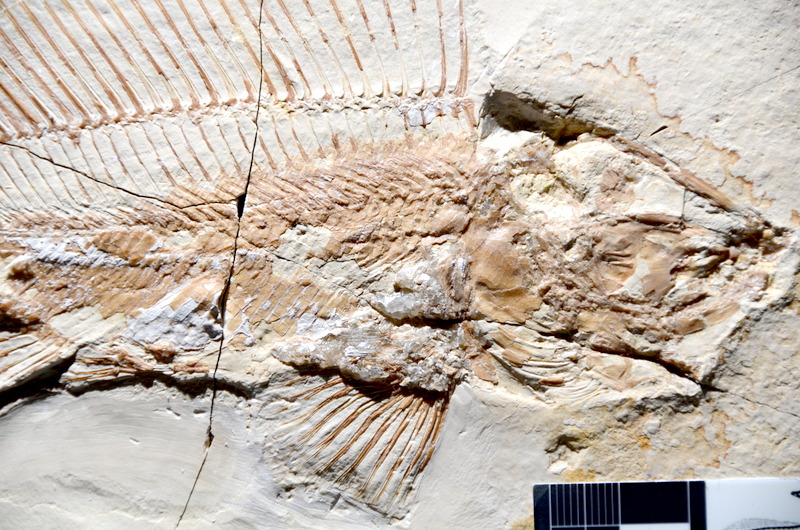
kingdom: Animalia
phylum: Chordata
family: Macrosemiidae
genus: Macrosemius
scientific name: Macrosemius rostratus
